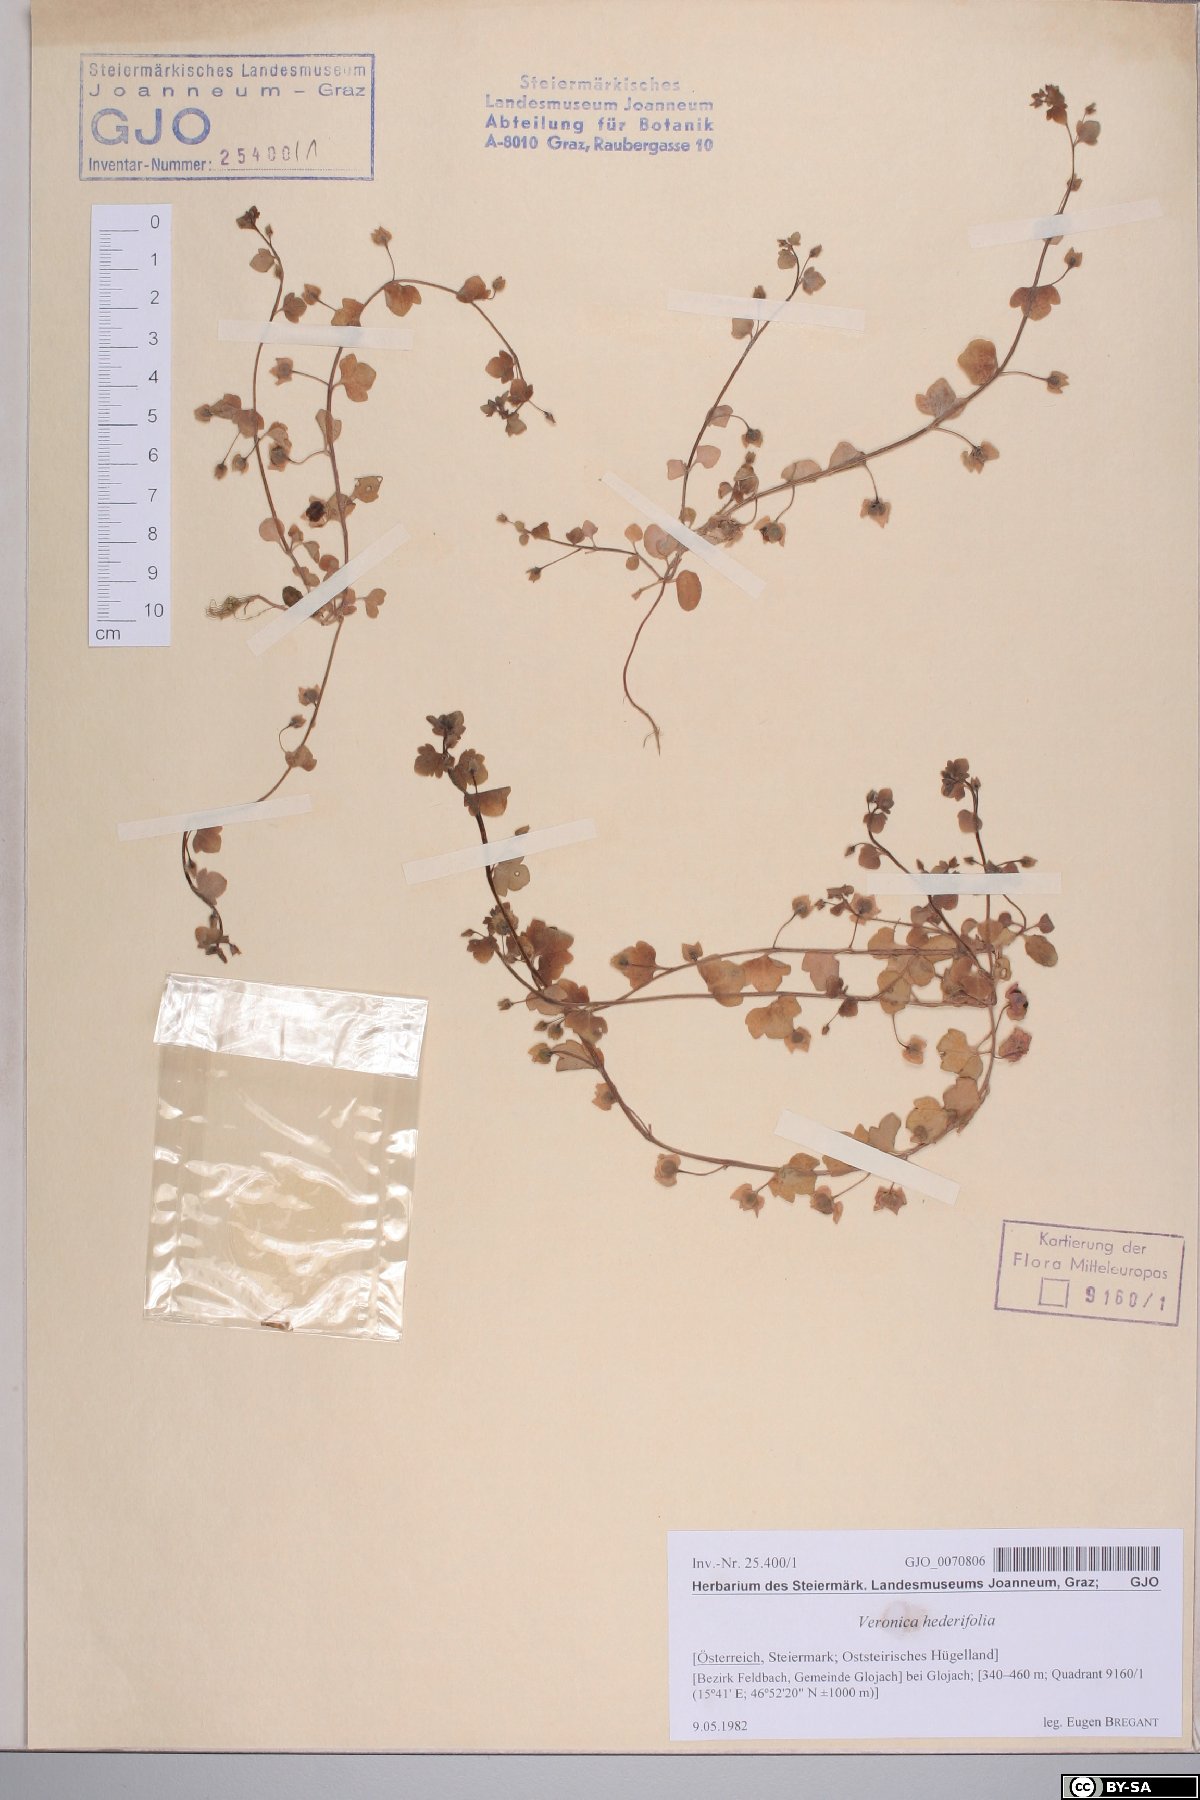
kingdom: Plantae
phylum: Tracheophyta
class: Magnoliopsida
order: Lamiales
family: Plantaginaceae
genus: Veronica
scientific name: Veronica hederifolia
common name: Ivy-leaved speedwell
